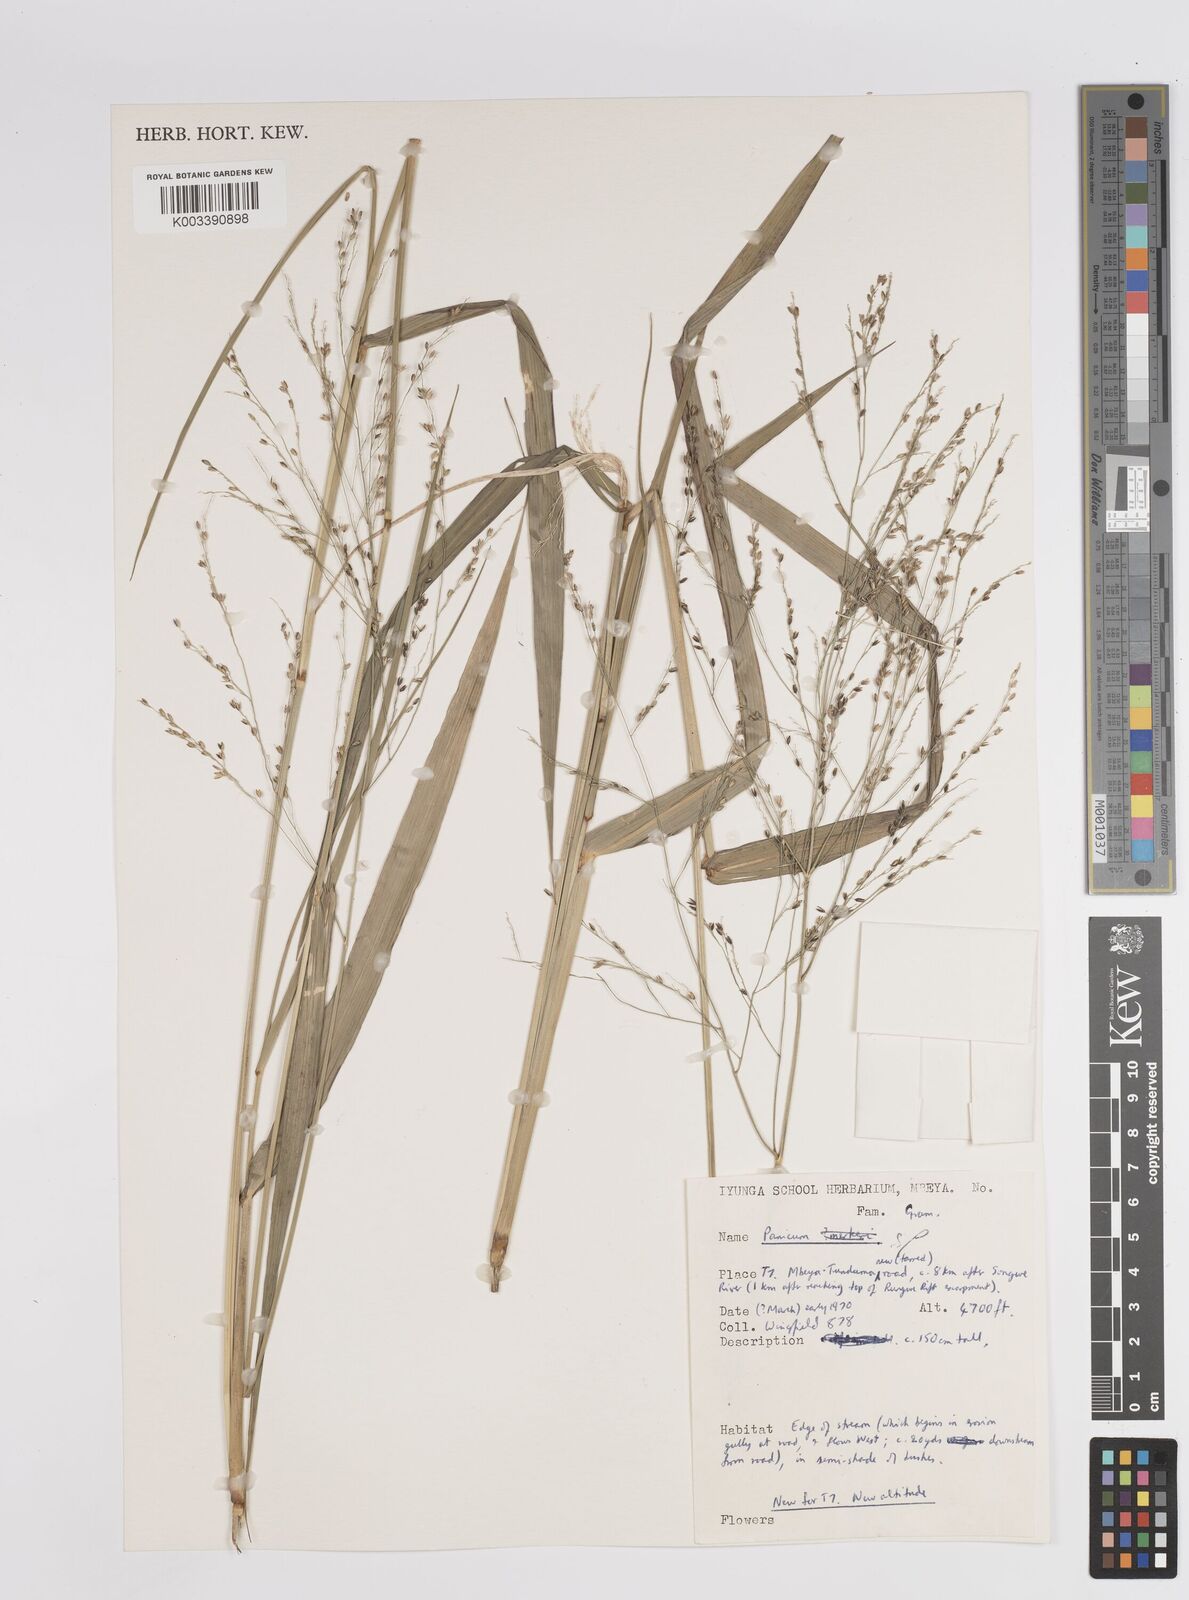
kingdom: Plantae
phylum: Tracheophyta
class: Liliopsida
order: Poales
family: Poaceae
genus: Panicum
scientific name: Panicum merkeri
